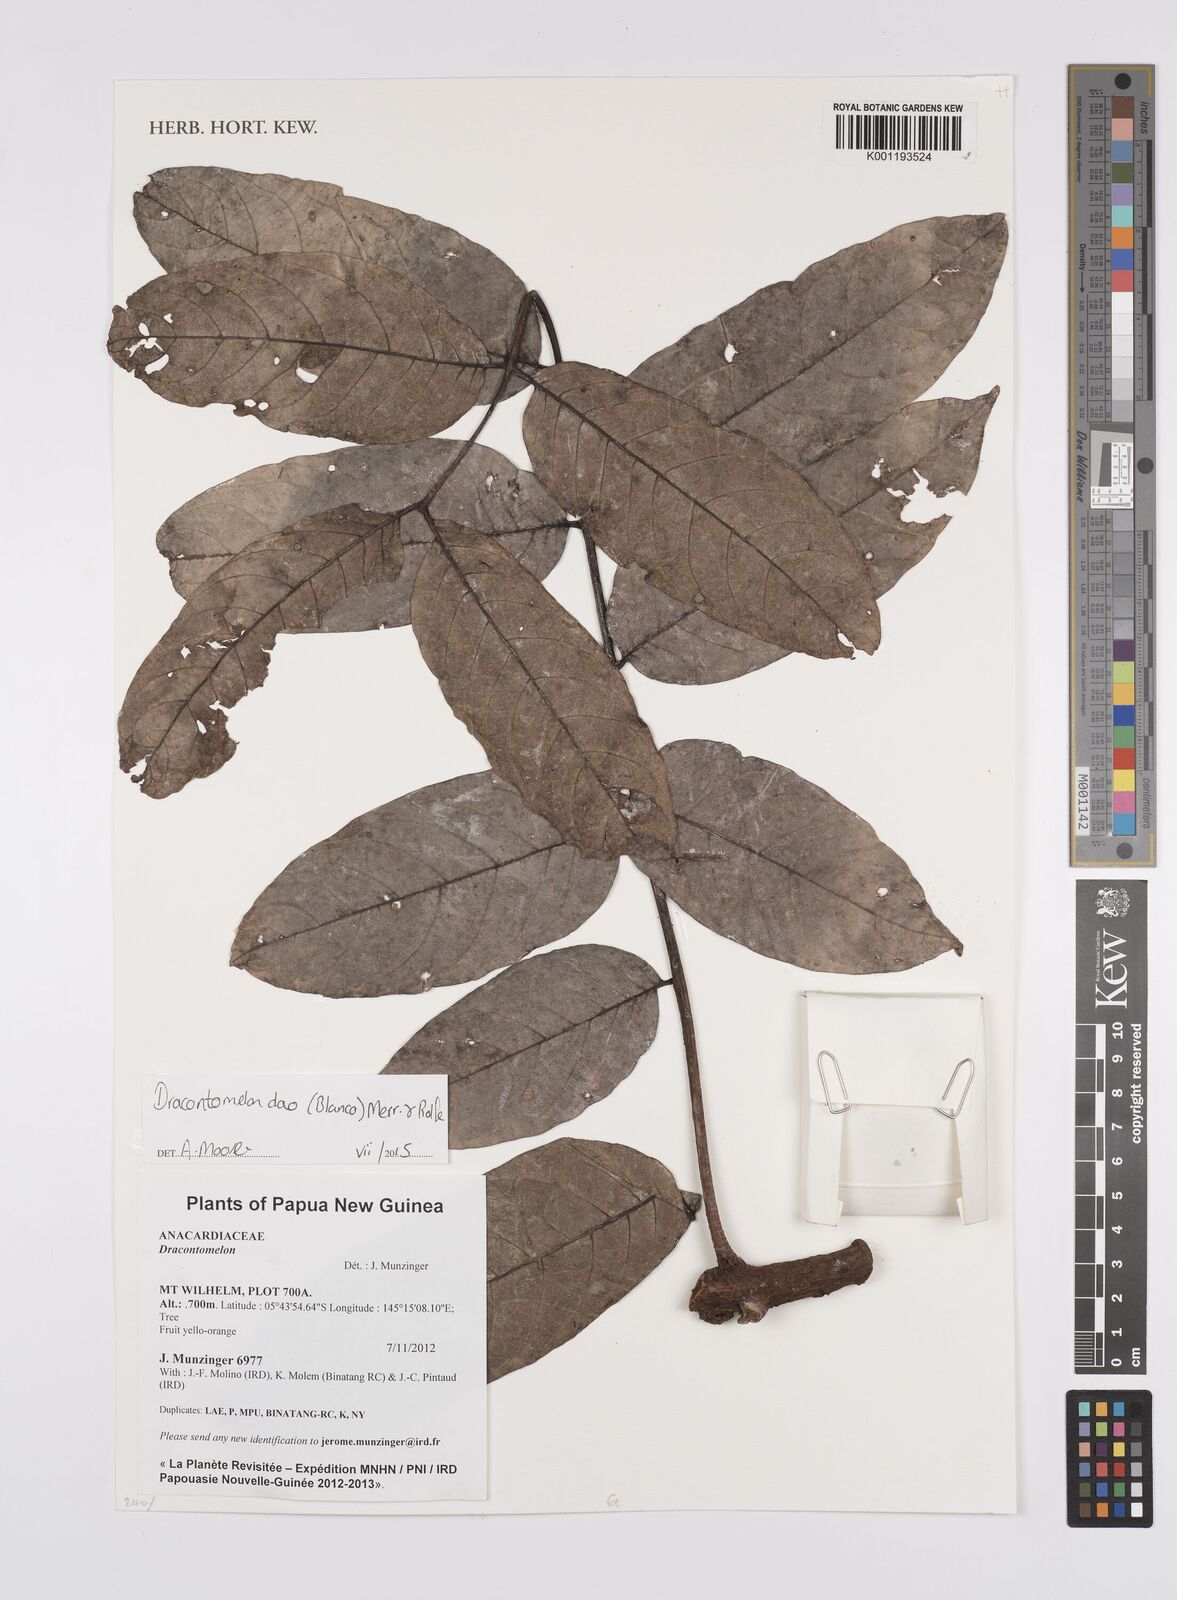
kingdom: Plantae
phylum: Tracheophyta
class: Magnoliopsida
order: Sapindales
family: Anacardiaceae
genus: Dracontomelon
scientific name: Dracontomelon dao
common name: Argus pheasant-tree
